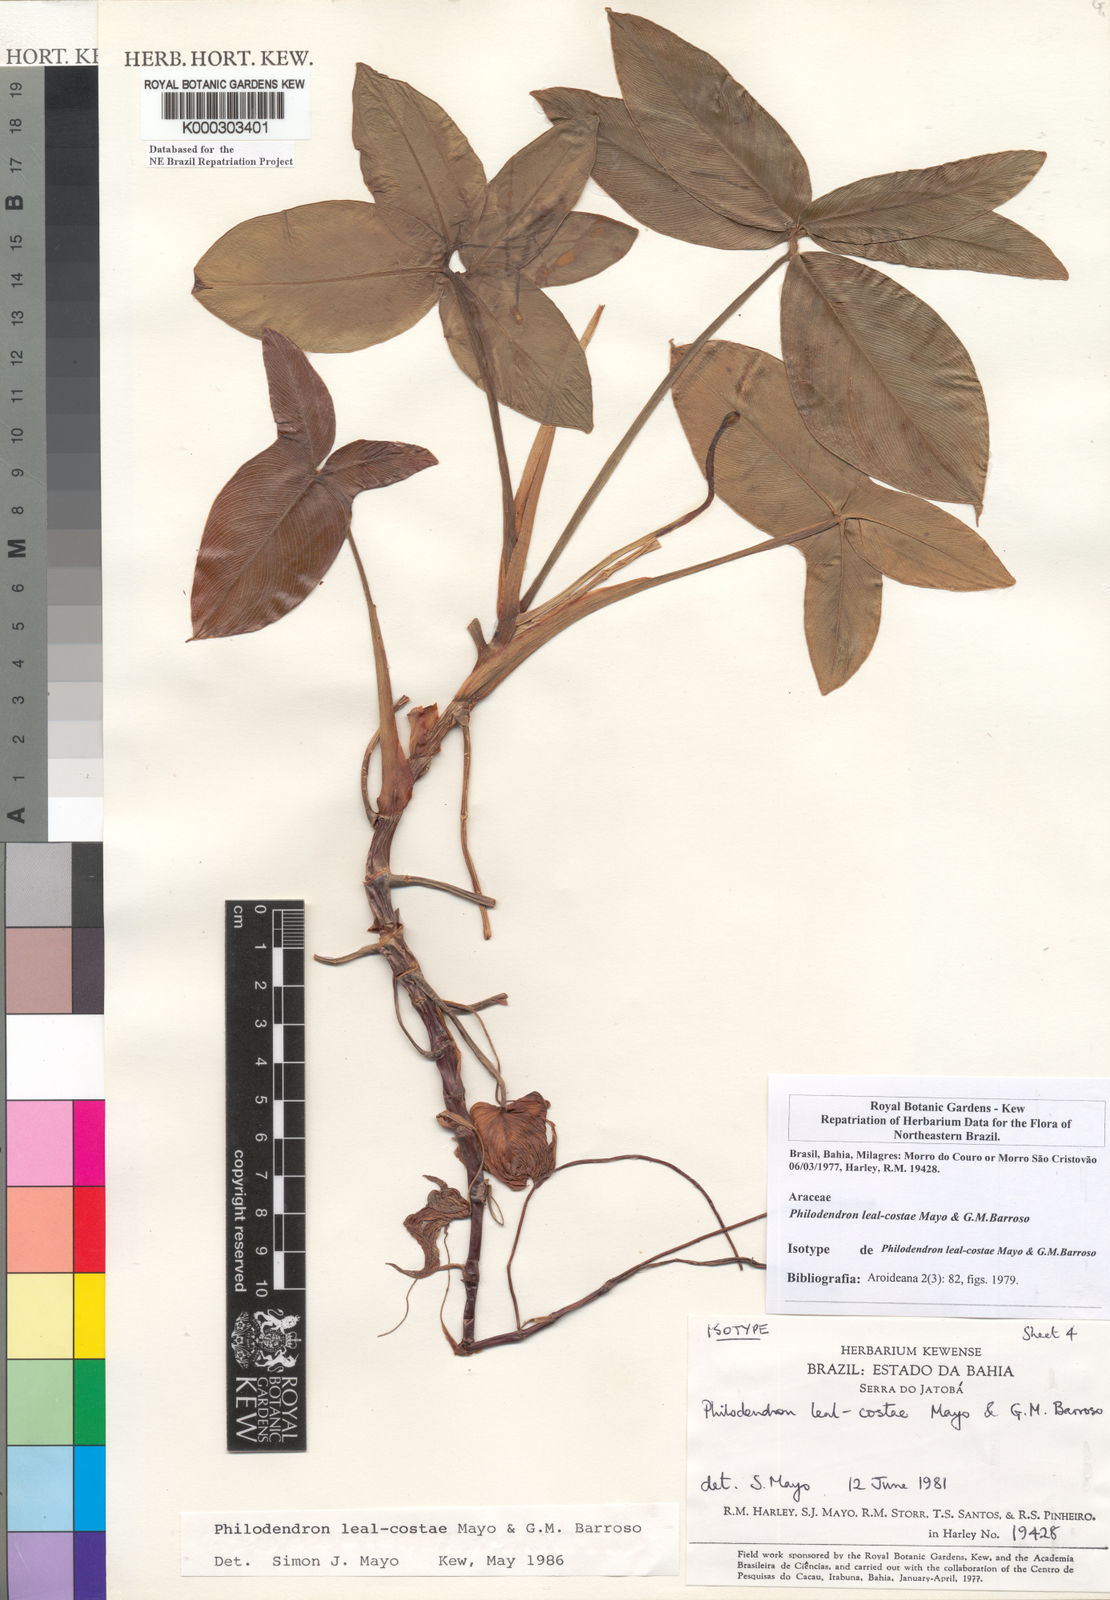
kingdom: Plantae
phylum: Tracheophyta
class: Liliopsida
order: Alismatales
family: Araceae
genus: Thaumatophyllum
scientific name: Thaumatophyllum leal-costae
